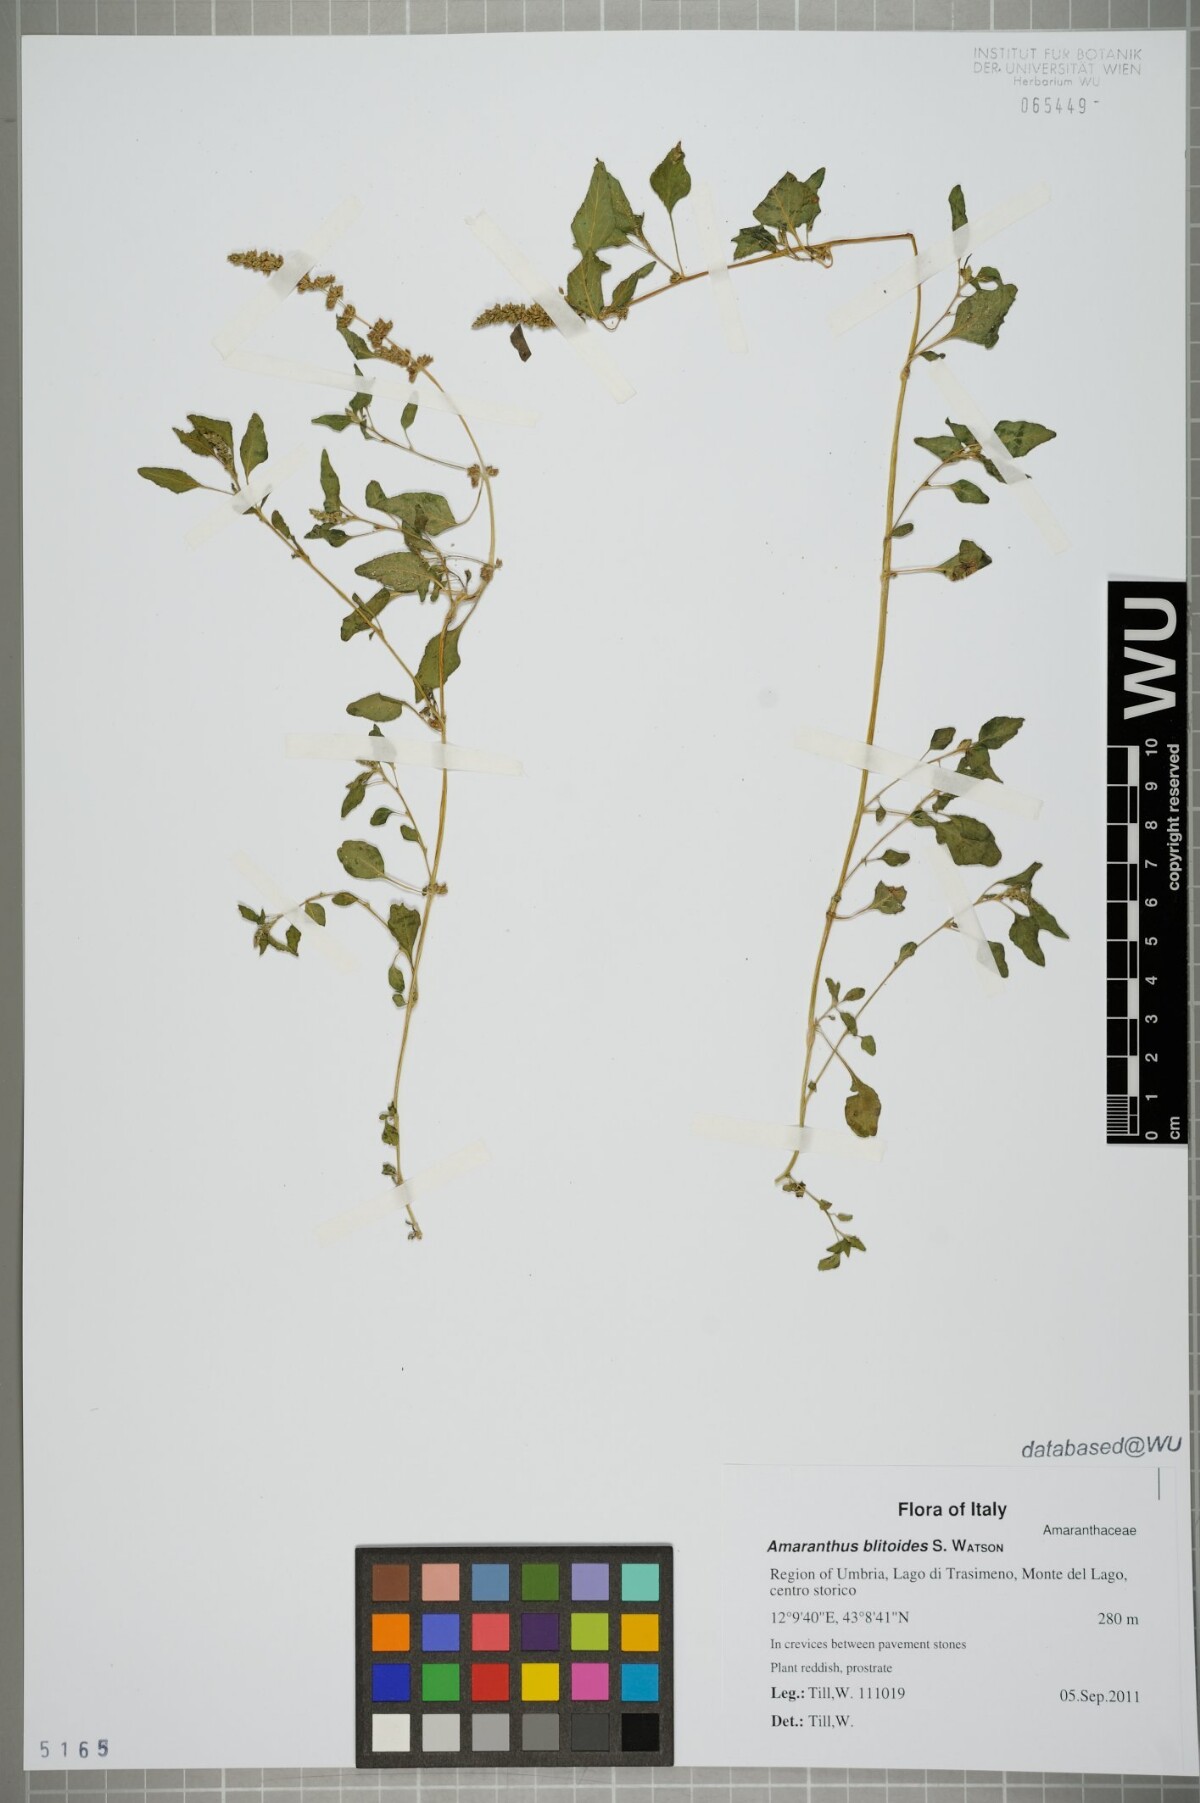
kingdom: Plantae
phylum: Tracheophyta
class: Magnoliopsida
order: Caryophyllales
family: Amaranthaceae
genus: Amaranthus
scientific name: Amaranthus deflexus
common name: Perennial pigweed
